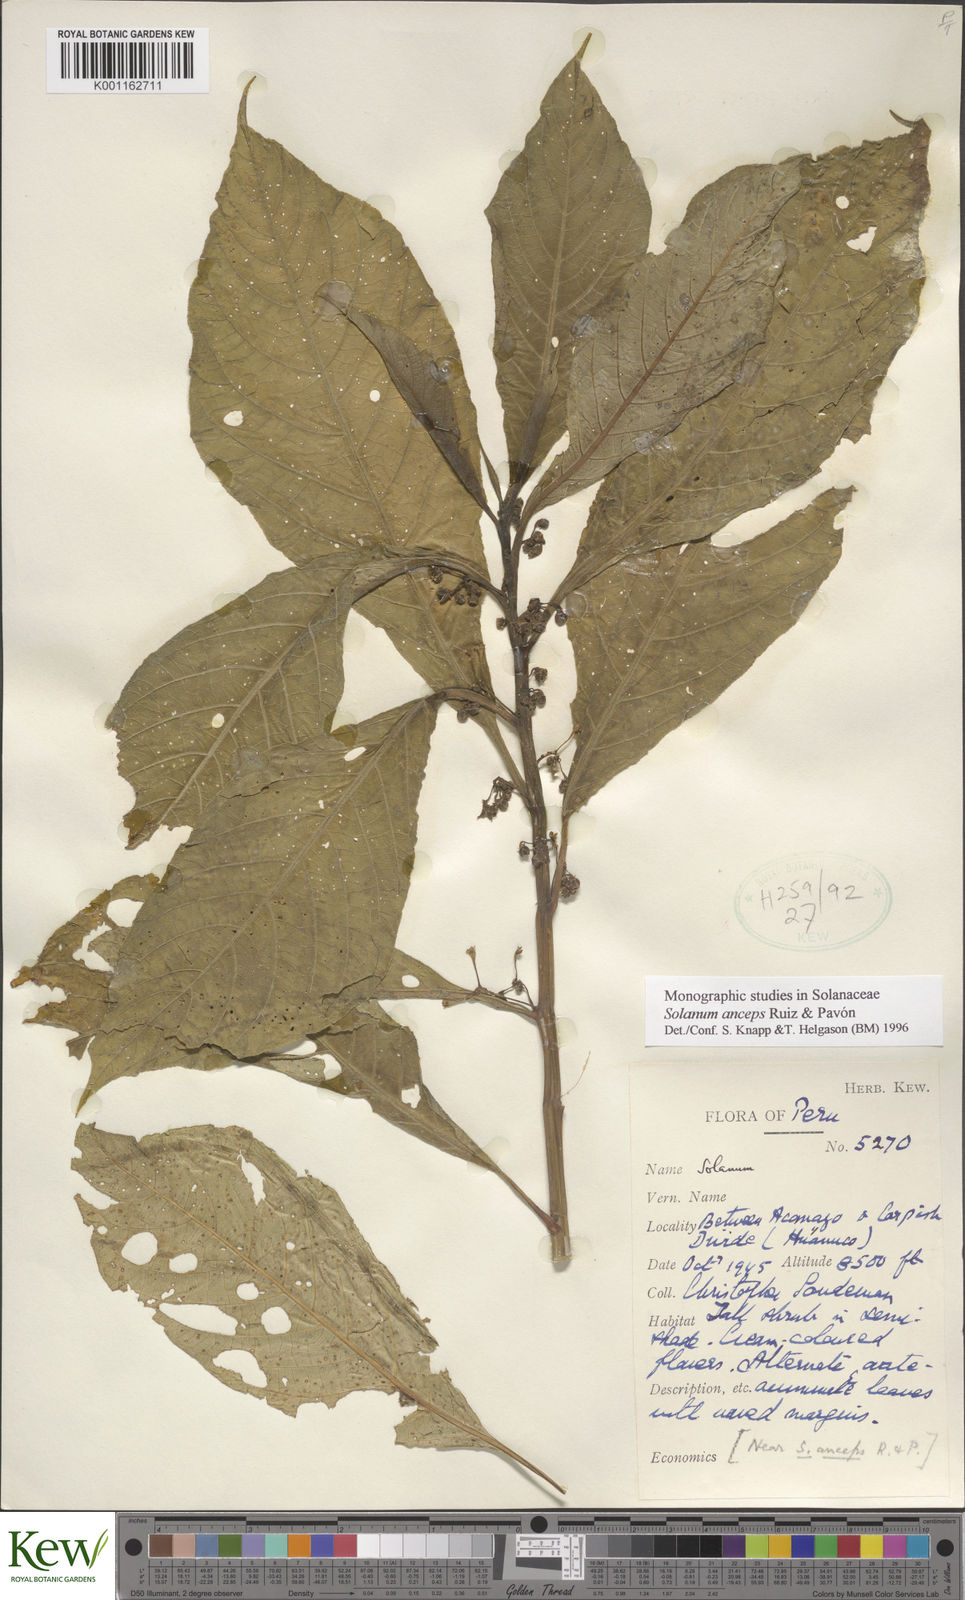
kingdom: Plantae
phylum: Tracheophyta
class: Magnoliopsida
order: Solanales
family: Solanaceae
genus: Solanum
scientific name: Solanum anceps
